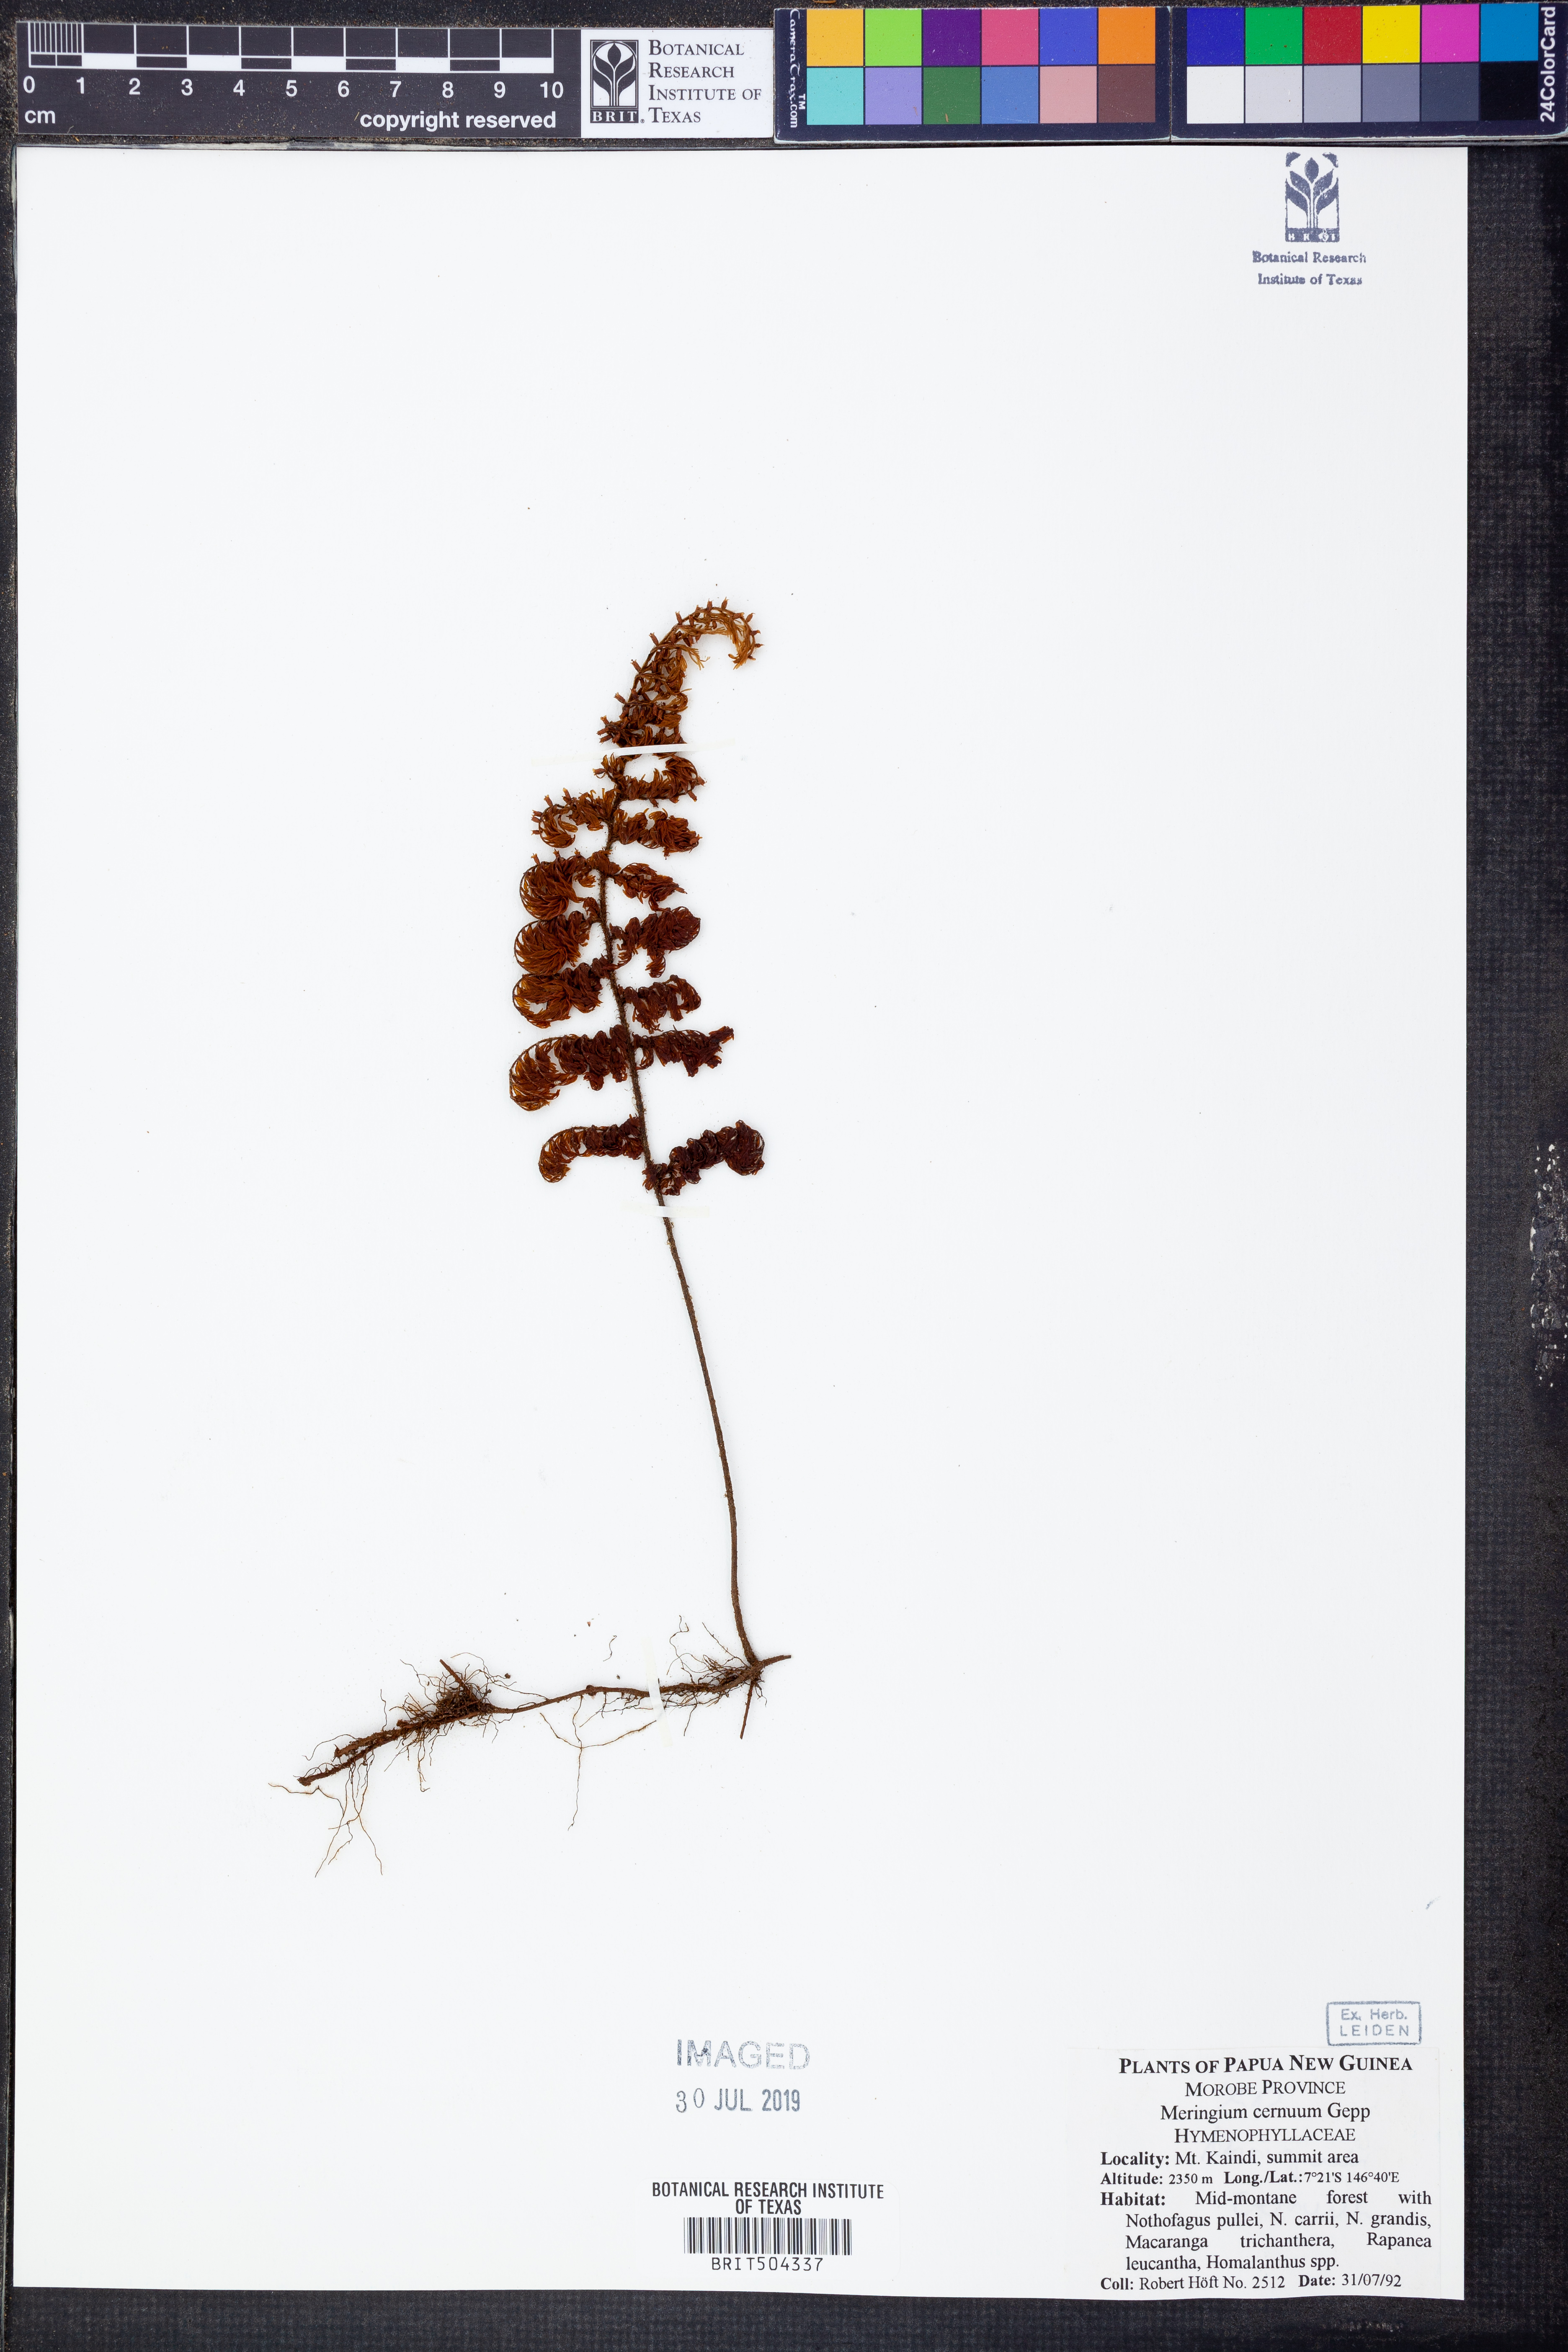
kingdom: Plantae
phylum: Tracheophyta
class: Polypodiopsida
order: Hymenophyllales
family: Hymenophyllaceae
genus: Hymenophyllum
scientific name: Hymenophyllum
